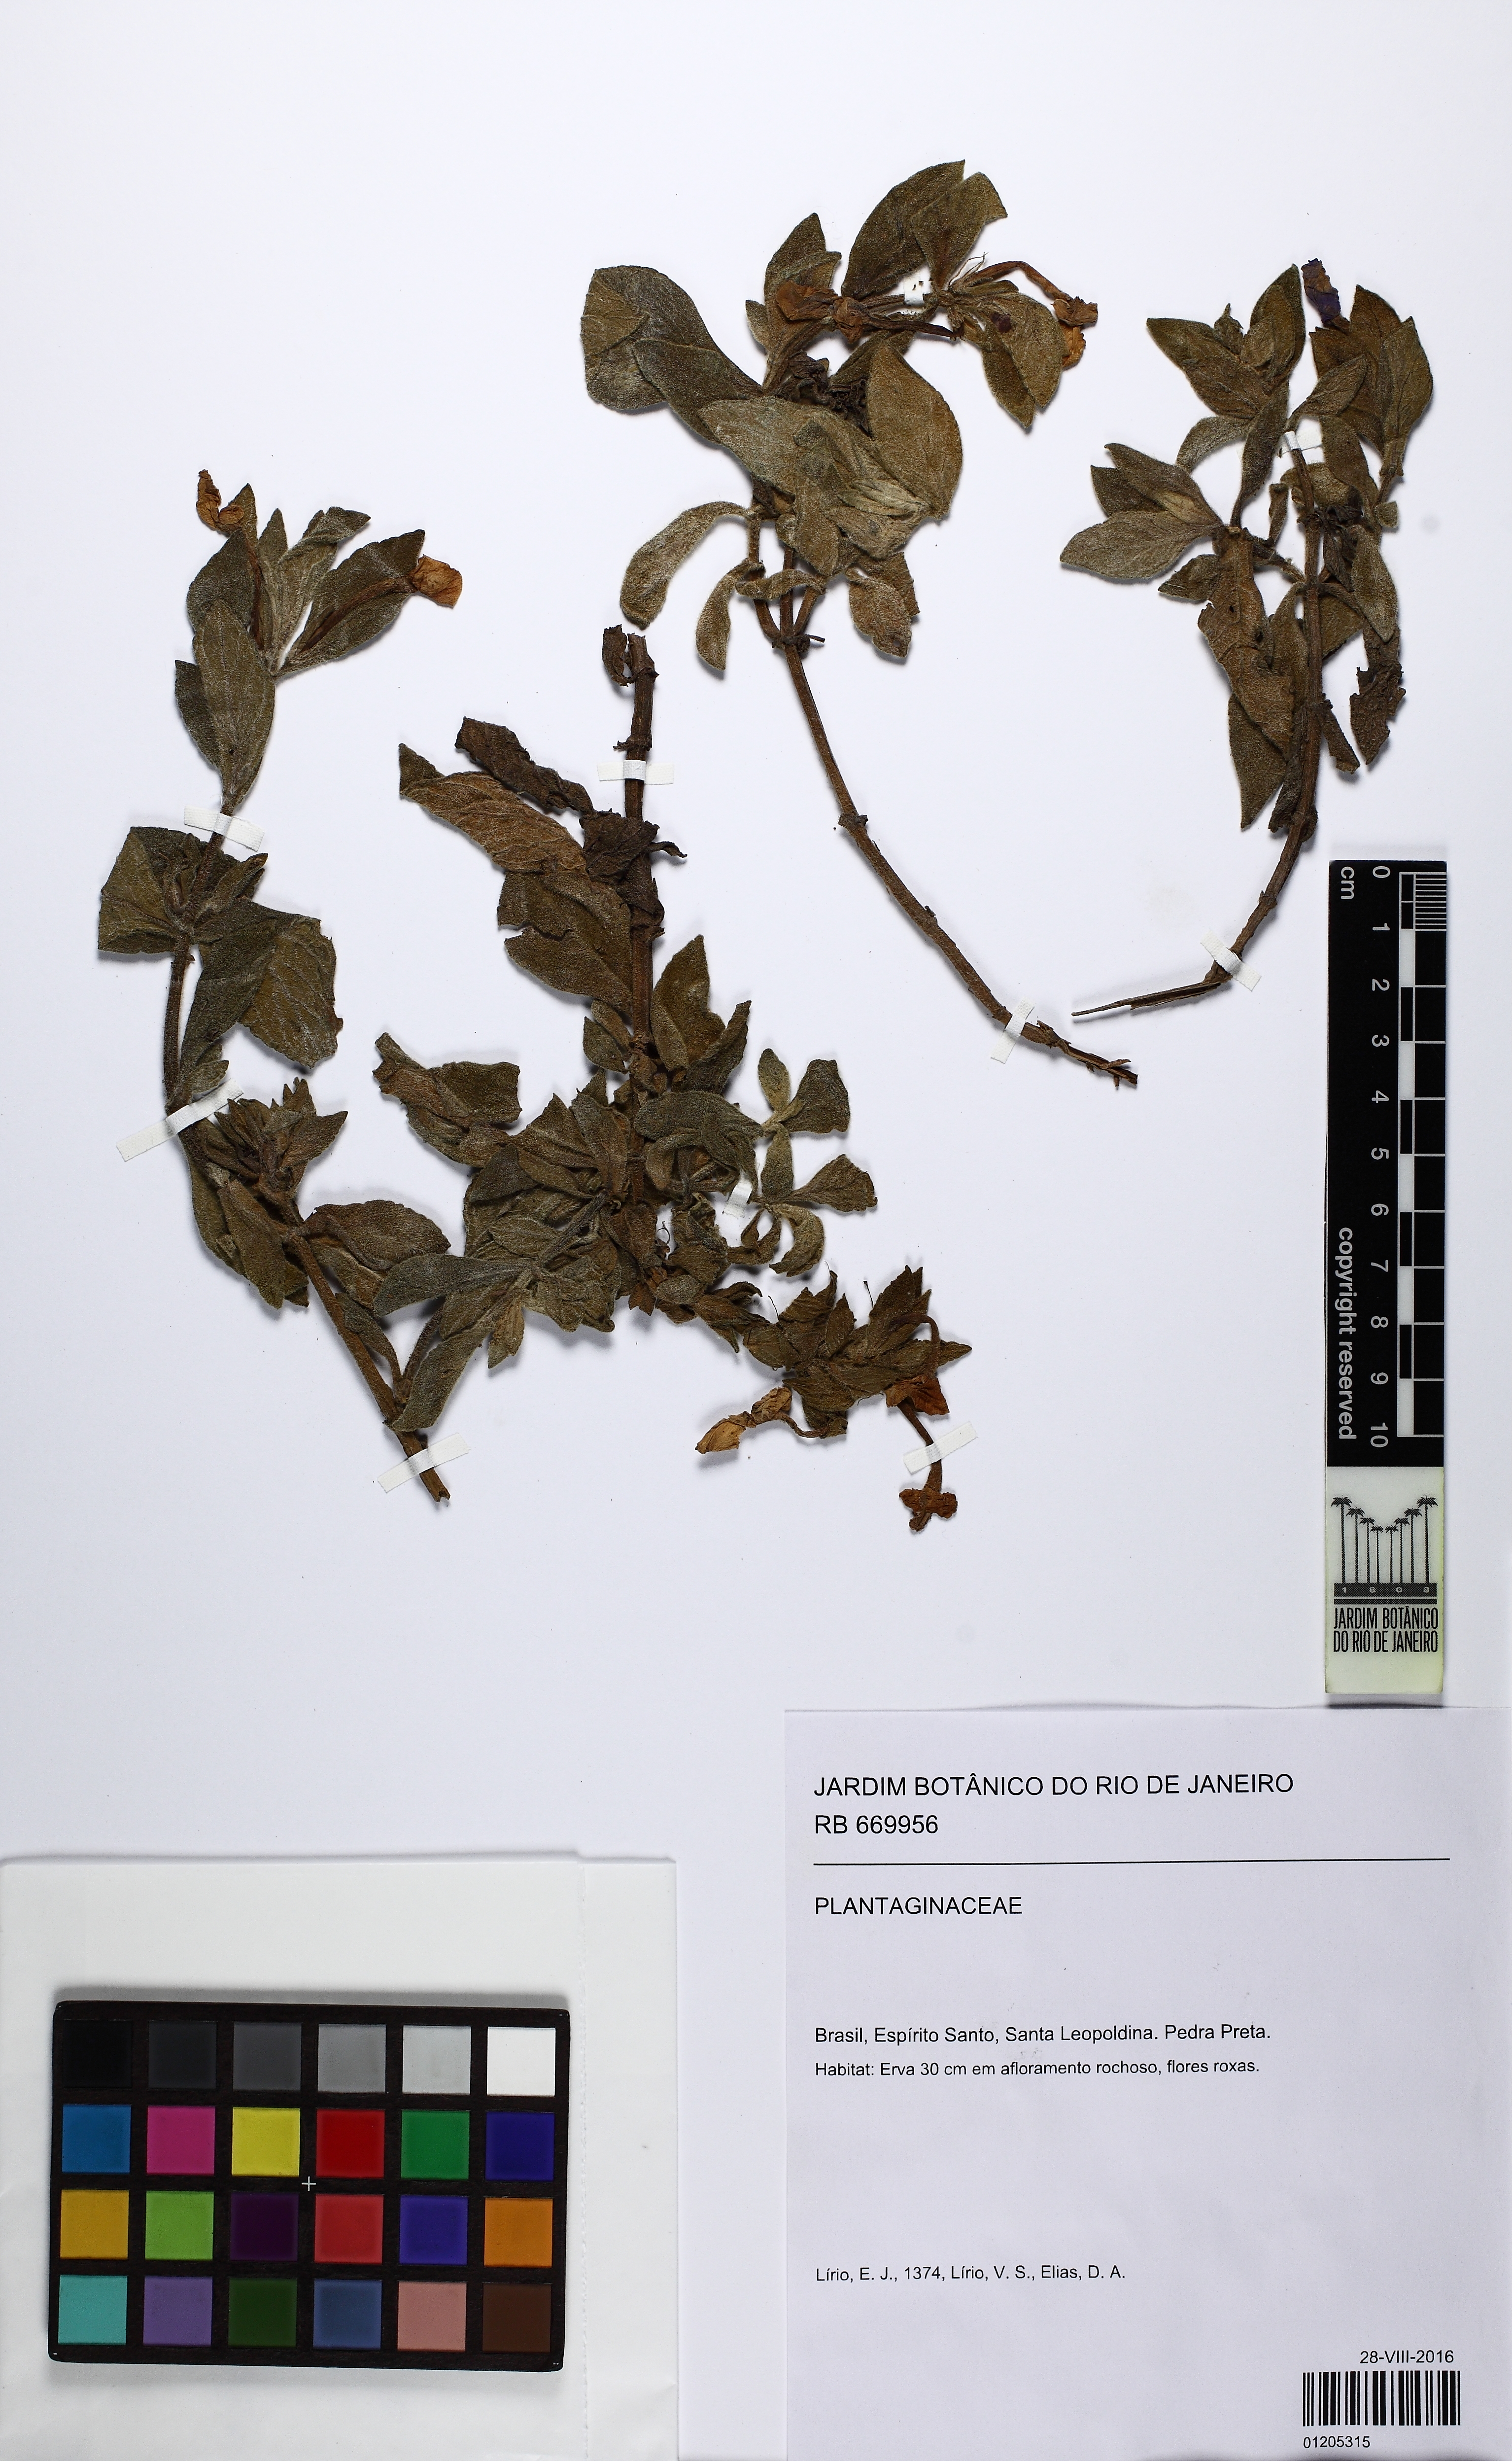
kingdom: Plantae
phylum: Tracheophyta
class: Magnoliopsida
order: Lamiales
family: Plantaginaceae
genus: Matourea
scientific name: Matourea platychila
